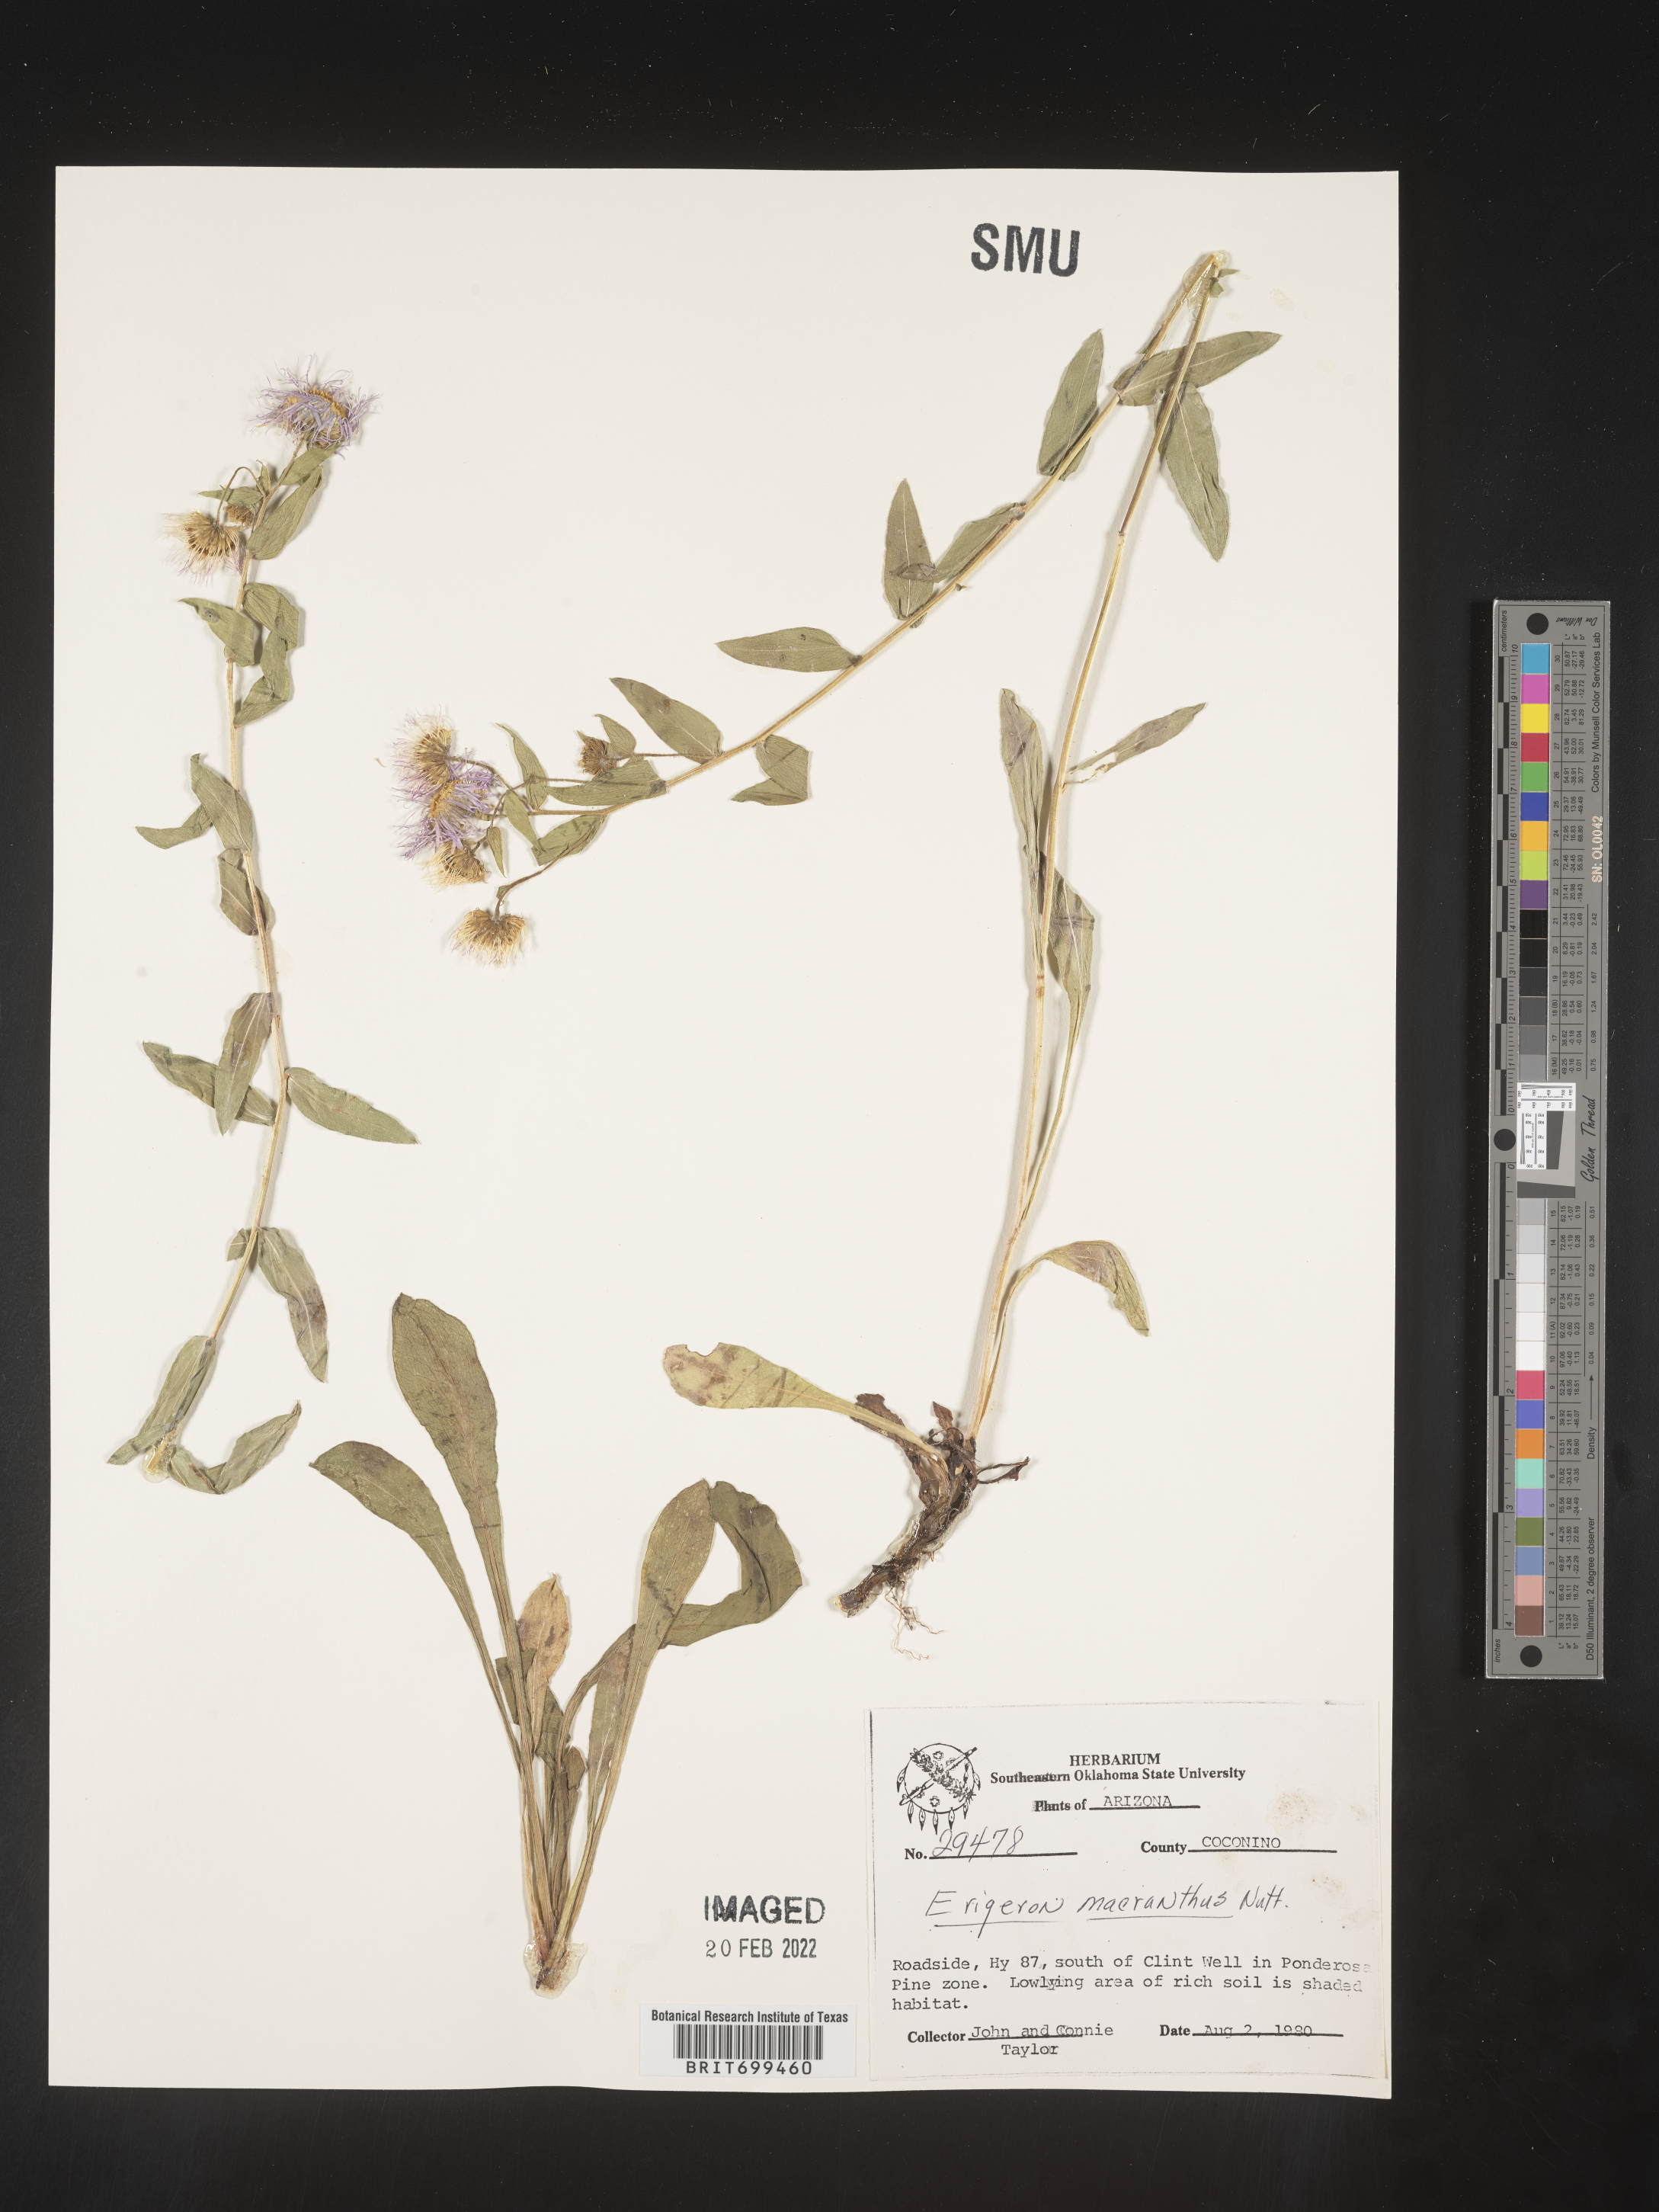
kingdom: Plantae
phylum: Tracheophyta
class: Magnoliopsida
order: Asterales
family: Asteraceae
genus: Erigeron
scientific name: Erigeron speciosus
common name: Aspen fleabane
